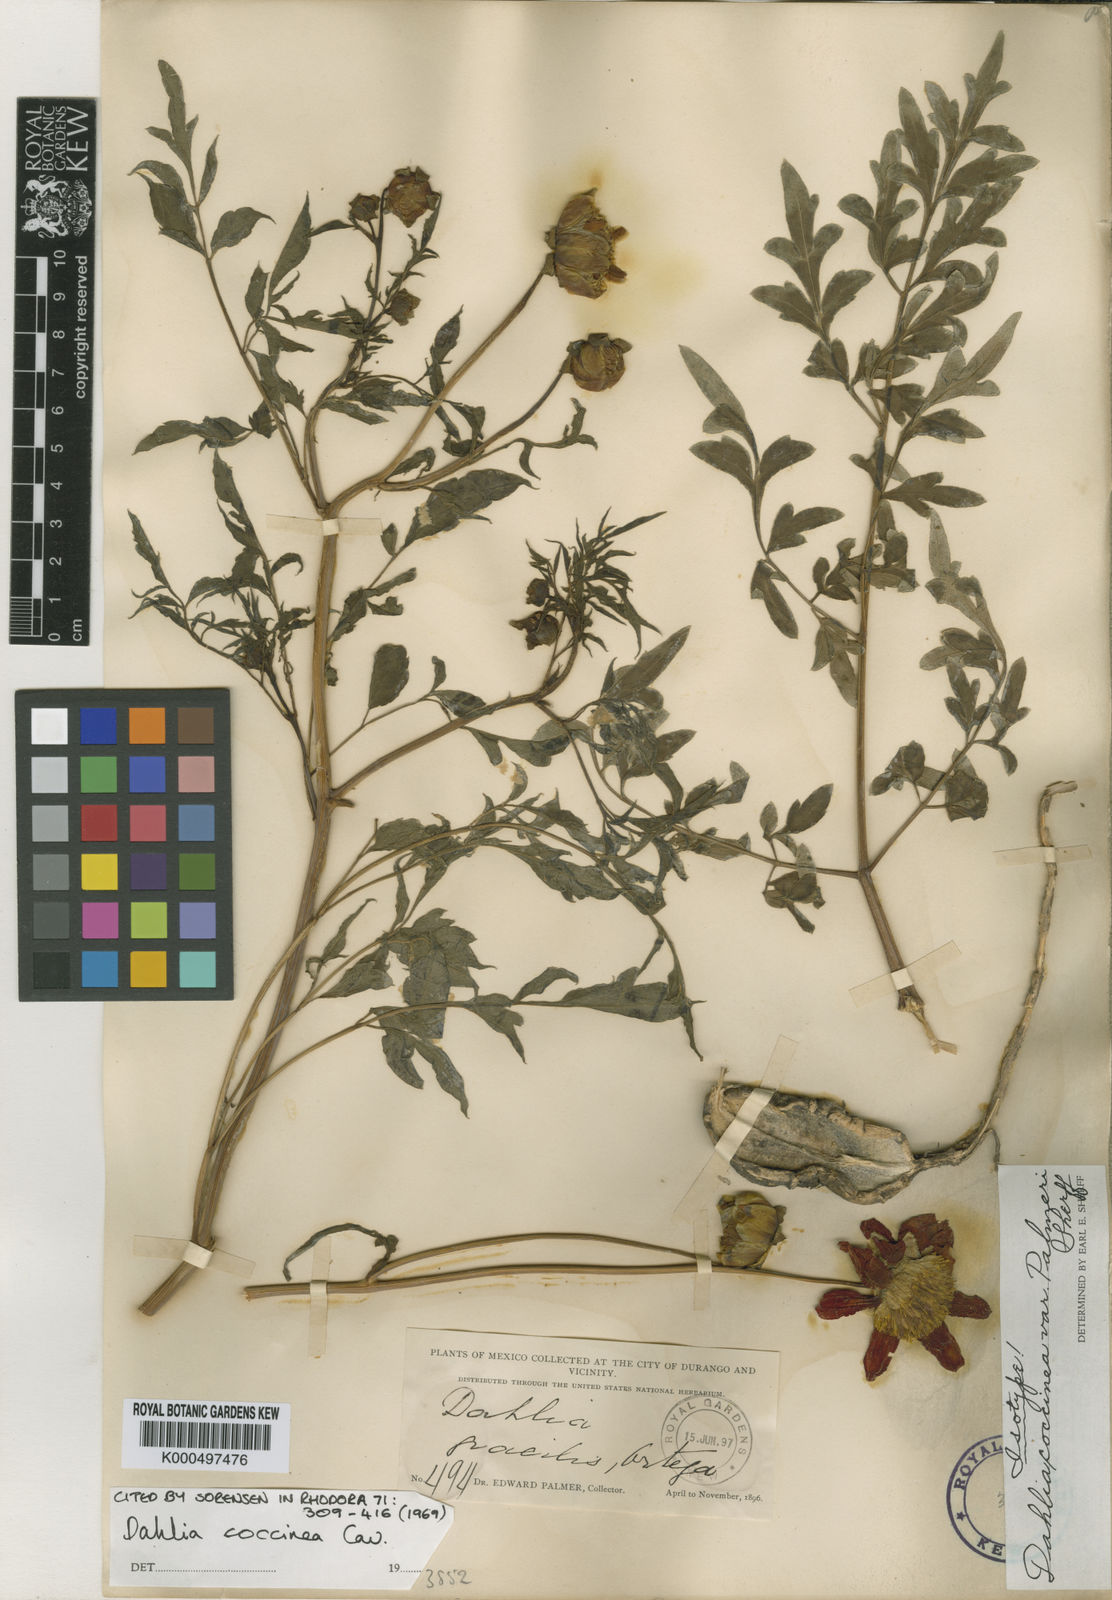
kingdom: Plantae
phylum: Tracheophyta
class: Magnoliopsida
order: Asterales
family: Asteraceae
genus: Dahlia
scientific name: Dahlia coccinea
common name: Red dahlia
